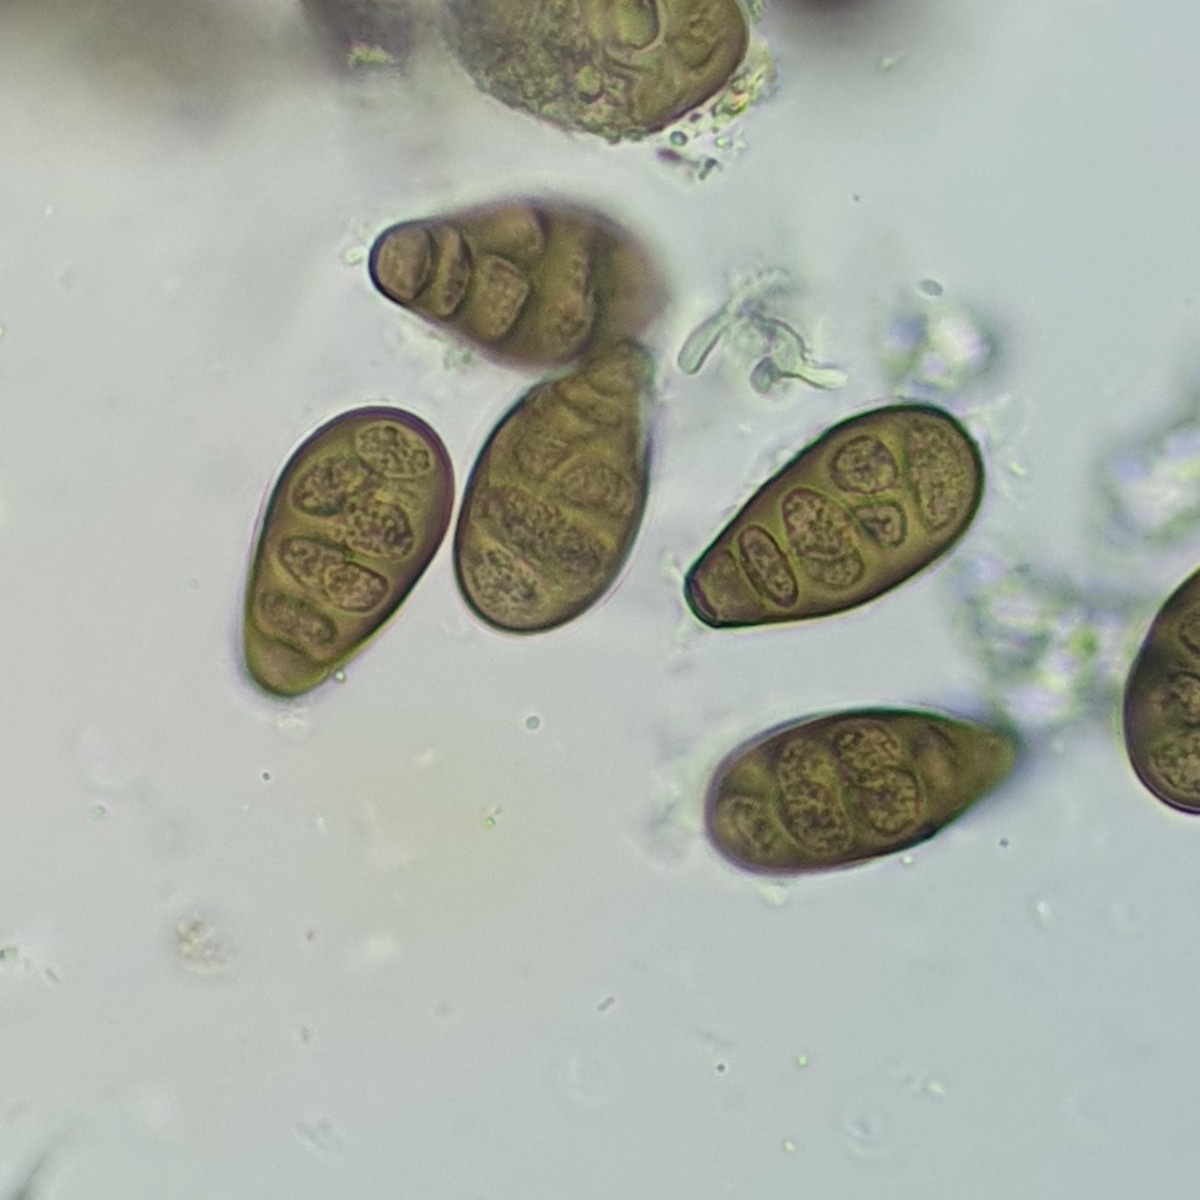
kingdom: Fungi
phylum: Ascomycota
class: Sordariomycetes
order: Diaporthales
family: Melanconidaceae
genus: Prosthecium
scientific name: Prosthecium pyriforme
